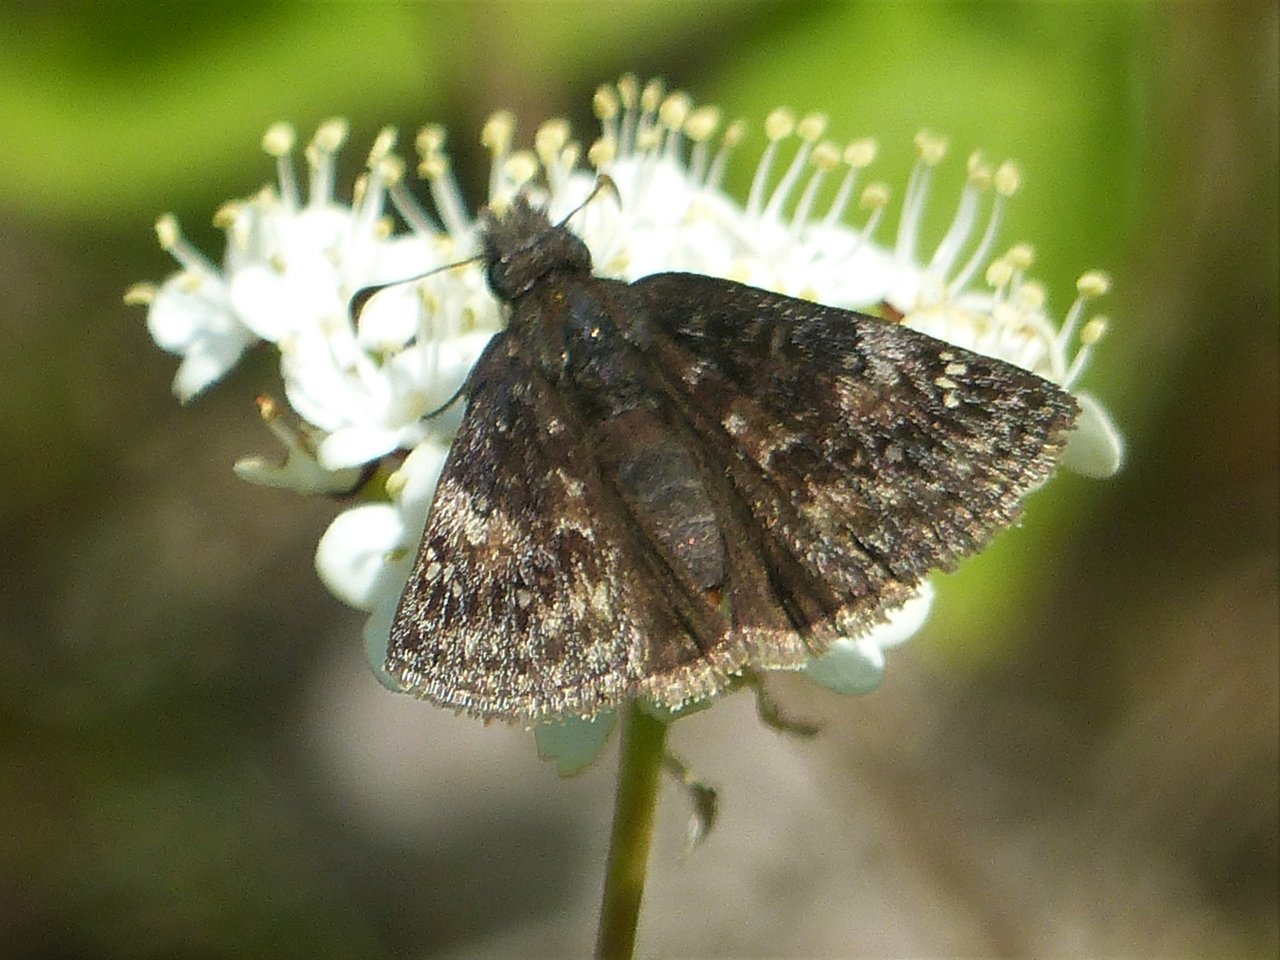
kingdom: Animalia
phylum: Arthropoda
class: Insecta
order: Lepidoptera
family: Hesperiidae
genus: Gesta
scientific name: Gesta
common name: Juvenal's Duskywing
